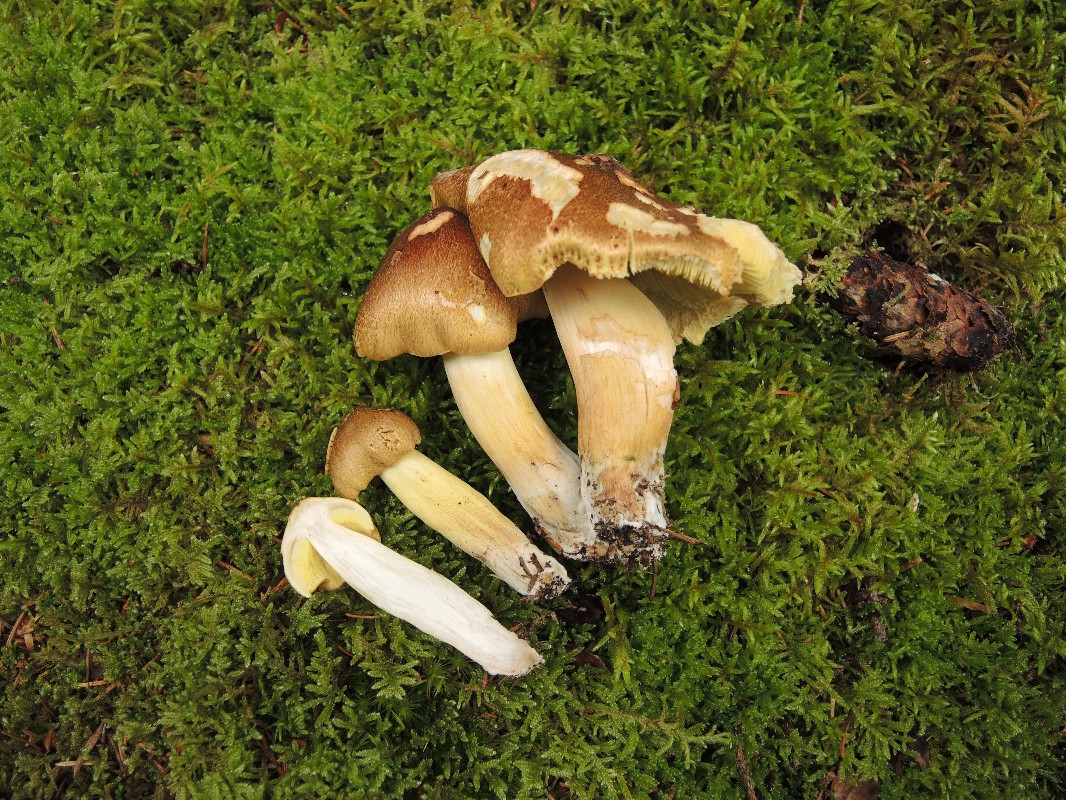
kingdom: Fungi
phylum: Basidiomycota
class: Agaricomycetes
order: Agaricales
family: Tricholomataceae
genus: Tricholoma
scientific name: Tricholoma equestre
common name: ægte ridderhat
